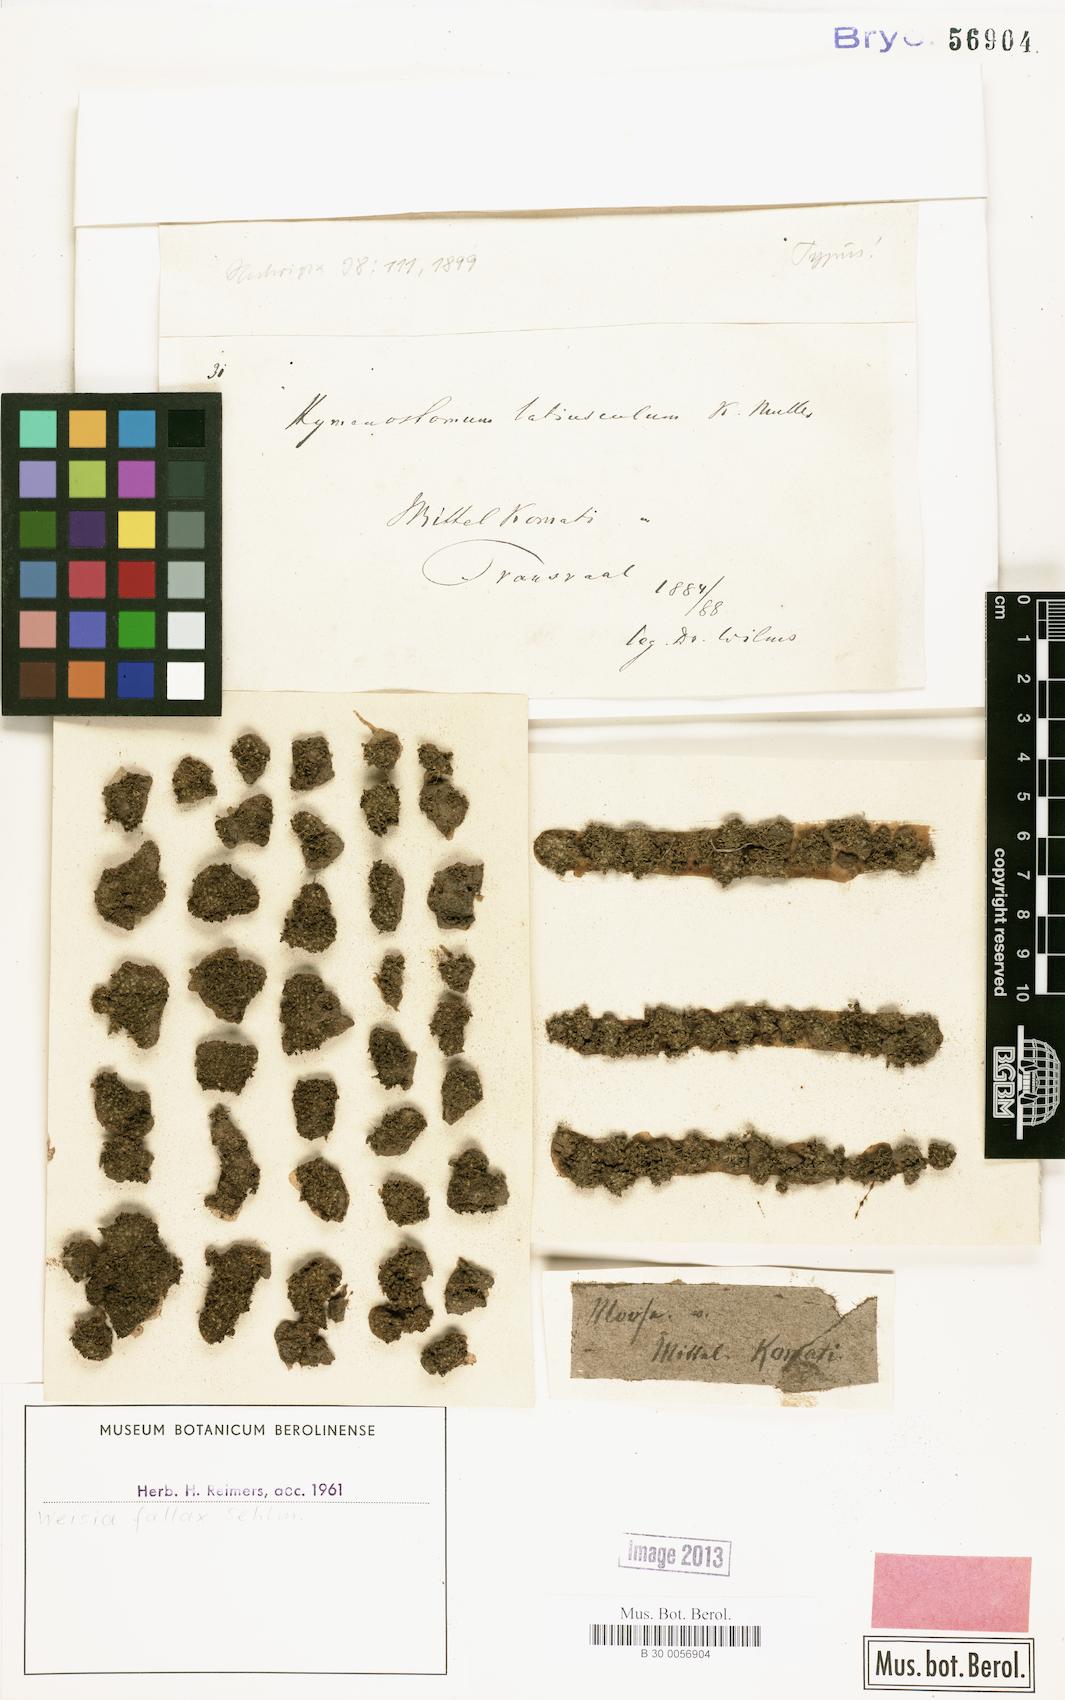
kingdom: Plantae
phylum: Bryophyta
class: Bryopsida
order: Pottiales
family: Pottiaceae
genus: Weissia
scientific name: Weissia controversa
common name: Green-tufted stubble moss
